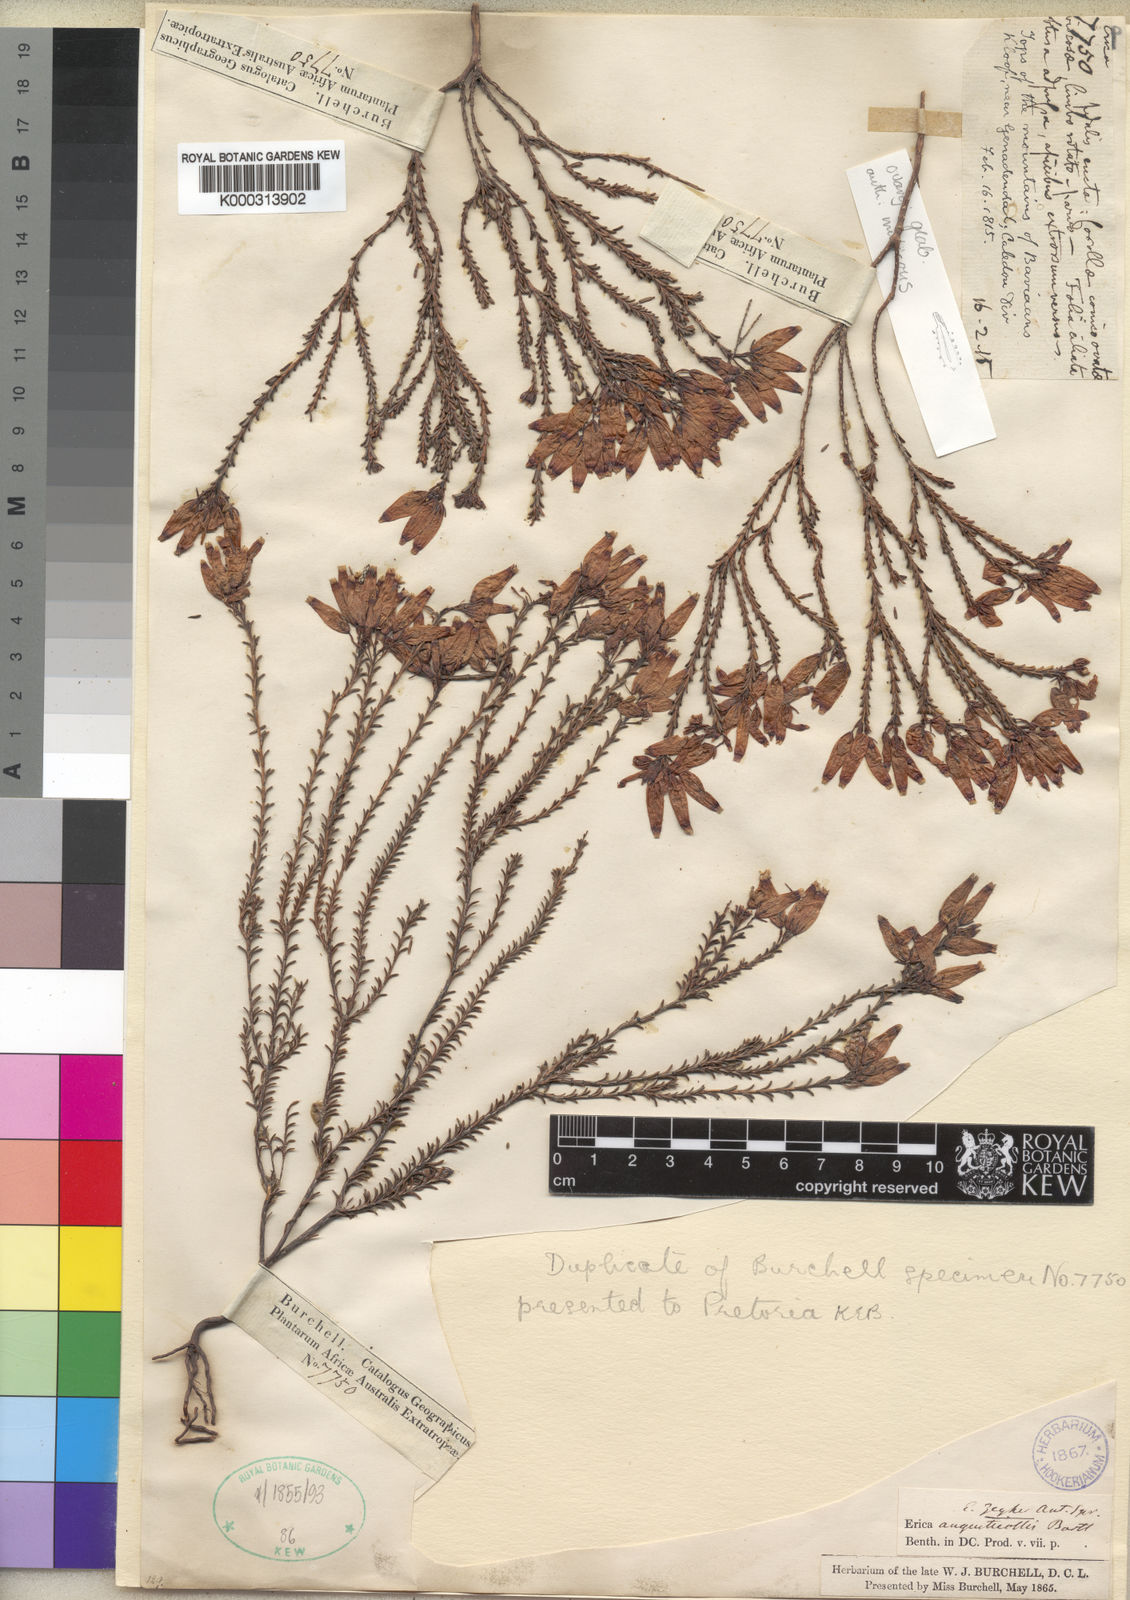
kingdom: Plantae
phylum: Tracheophyta
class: Magnoliopsida
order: Ericales
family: Ericaceae
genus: Erica
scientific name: Erica curvifolia
